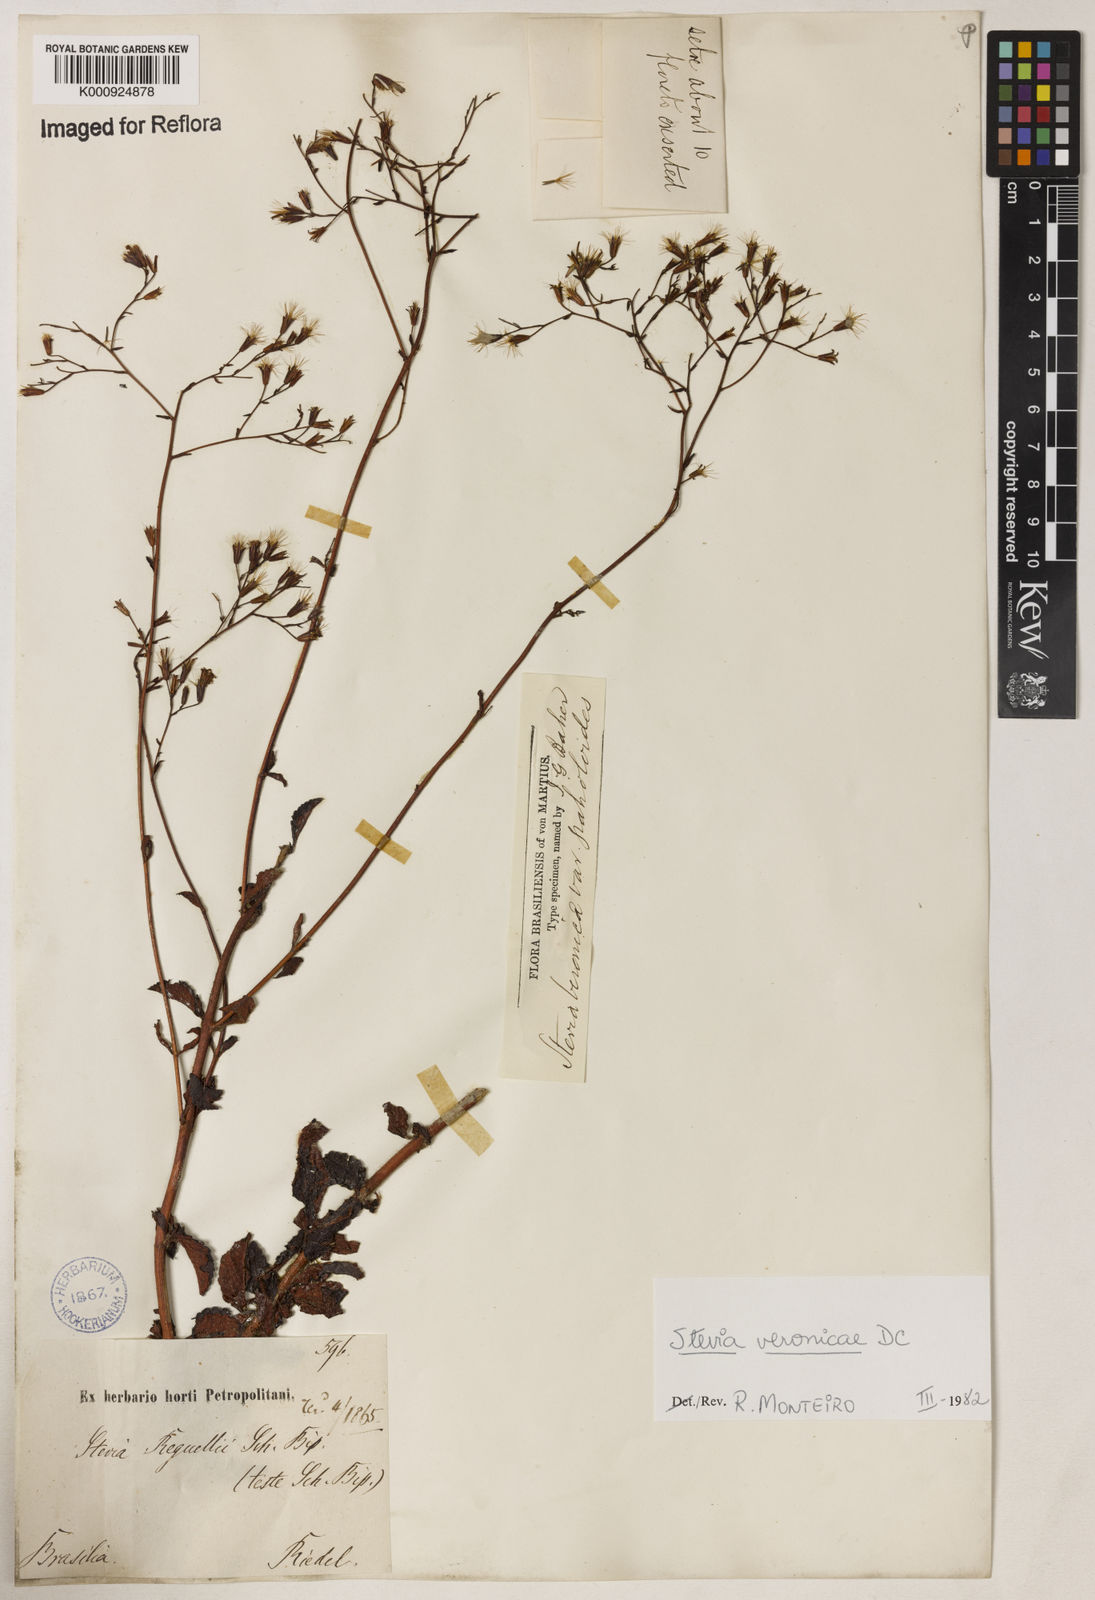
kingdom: Plantae
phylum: Tracheophyta
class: Magnoliopsida
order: Asterales
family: Asteraceae
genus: Stevia
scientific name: Stevia veronicae
